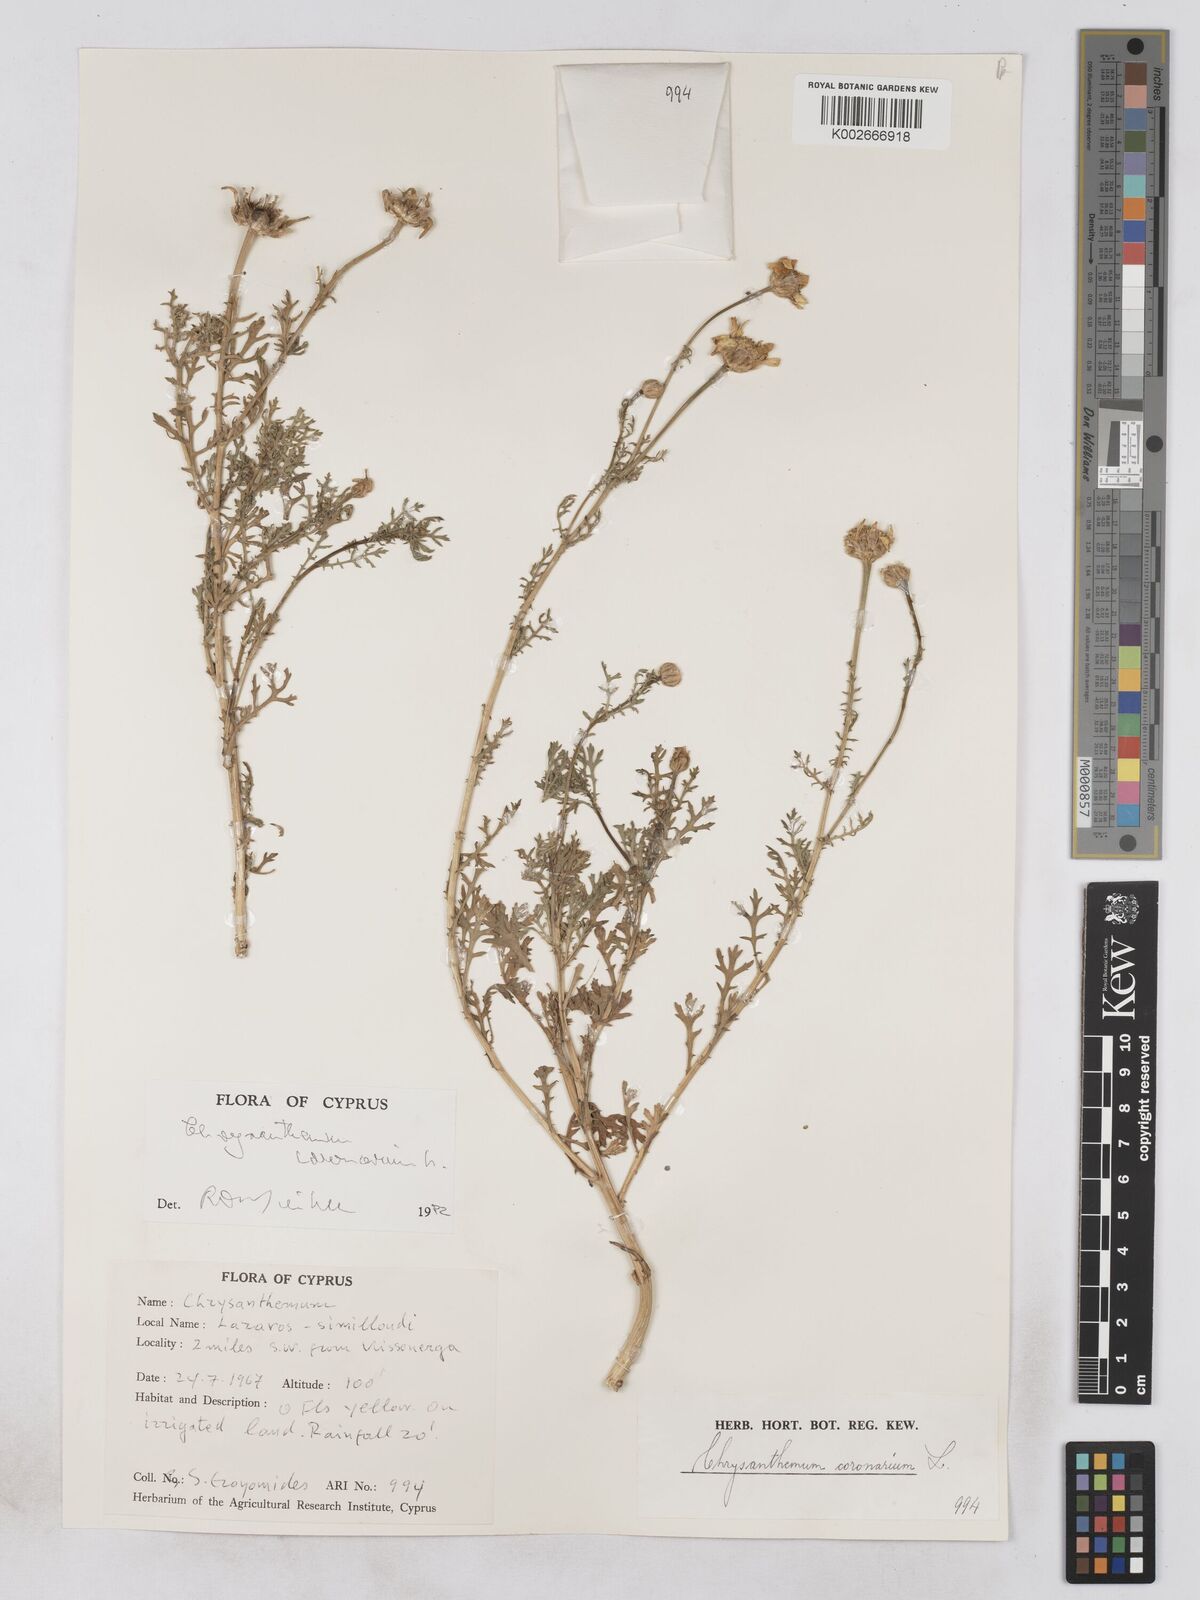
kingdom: Plantae
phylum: Tracheophyta
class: Magnoliopsida
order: Asterales
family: Asteraceae
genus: Glebionis
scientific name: Glebionis coronaria
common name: Crowndaisy
